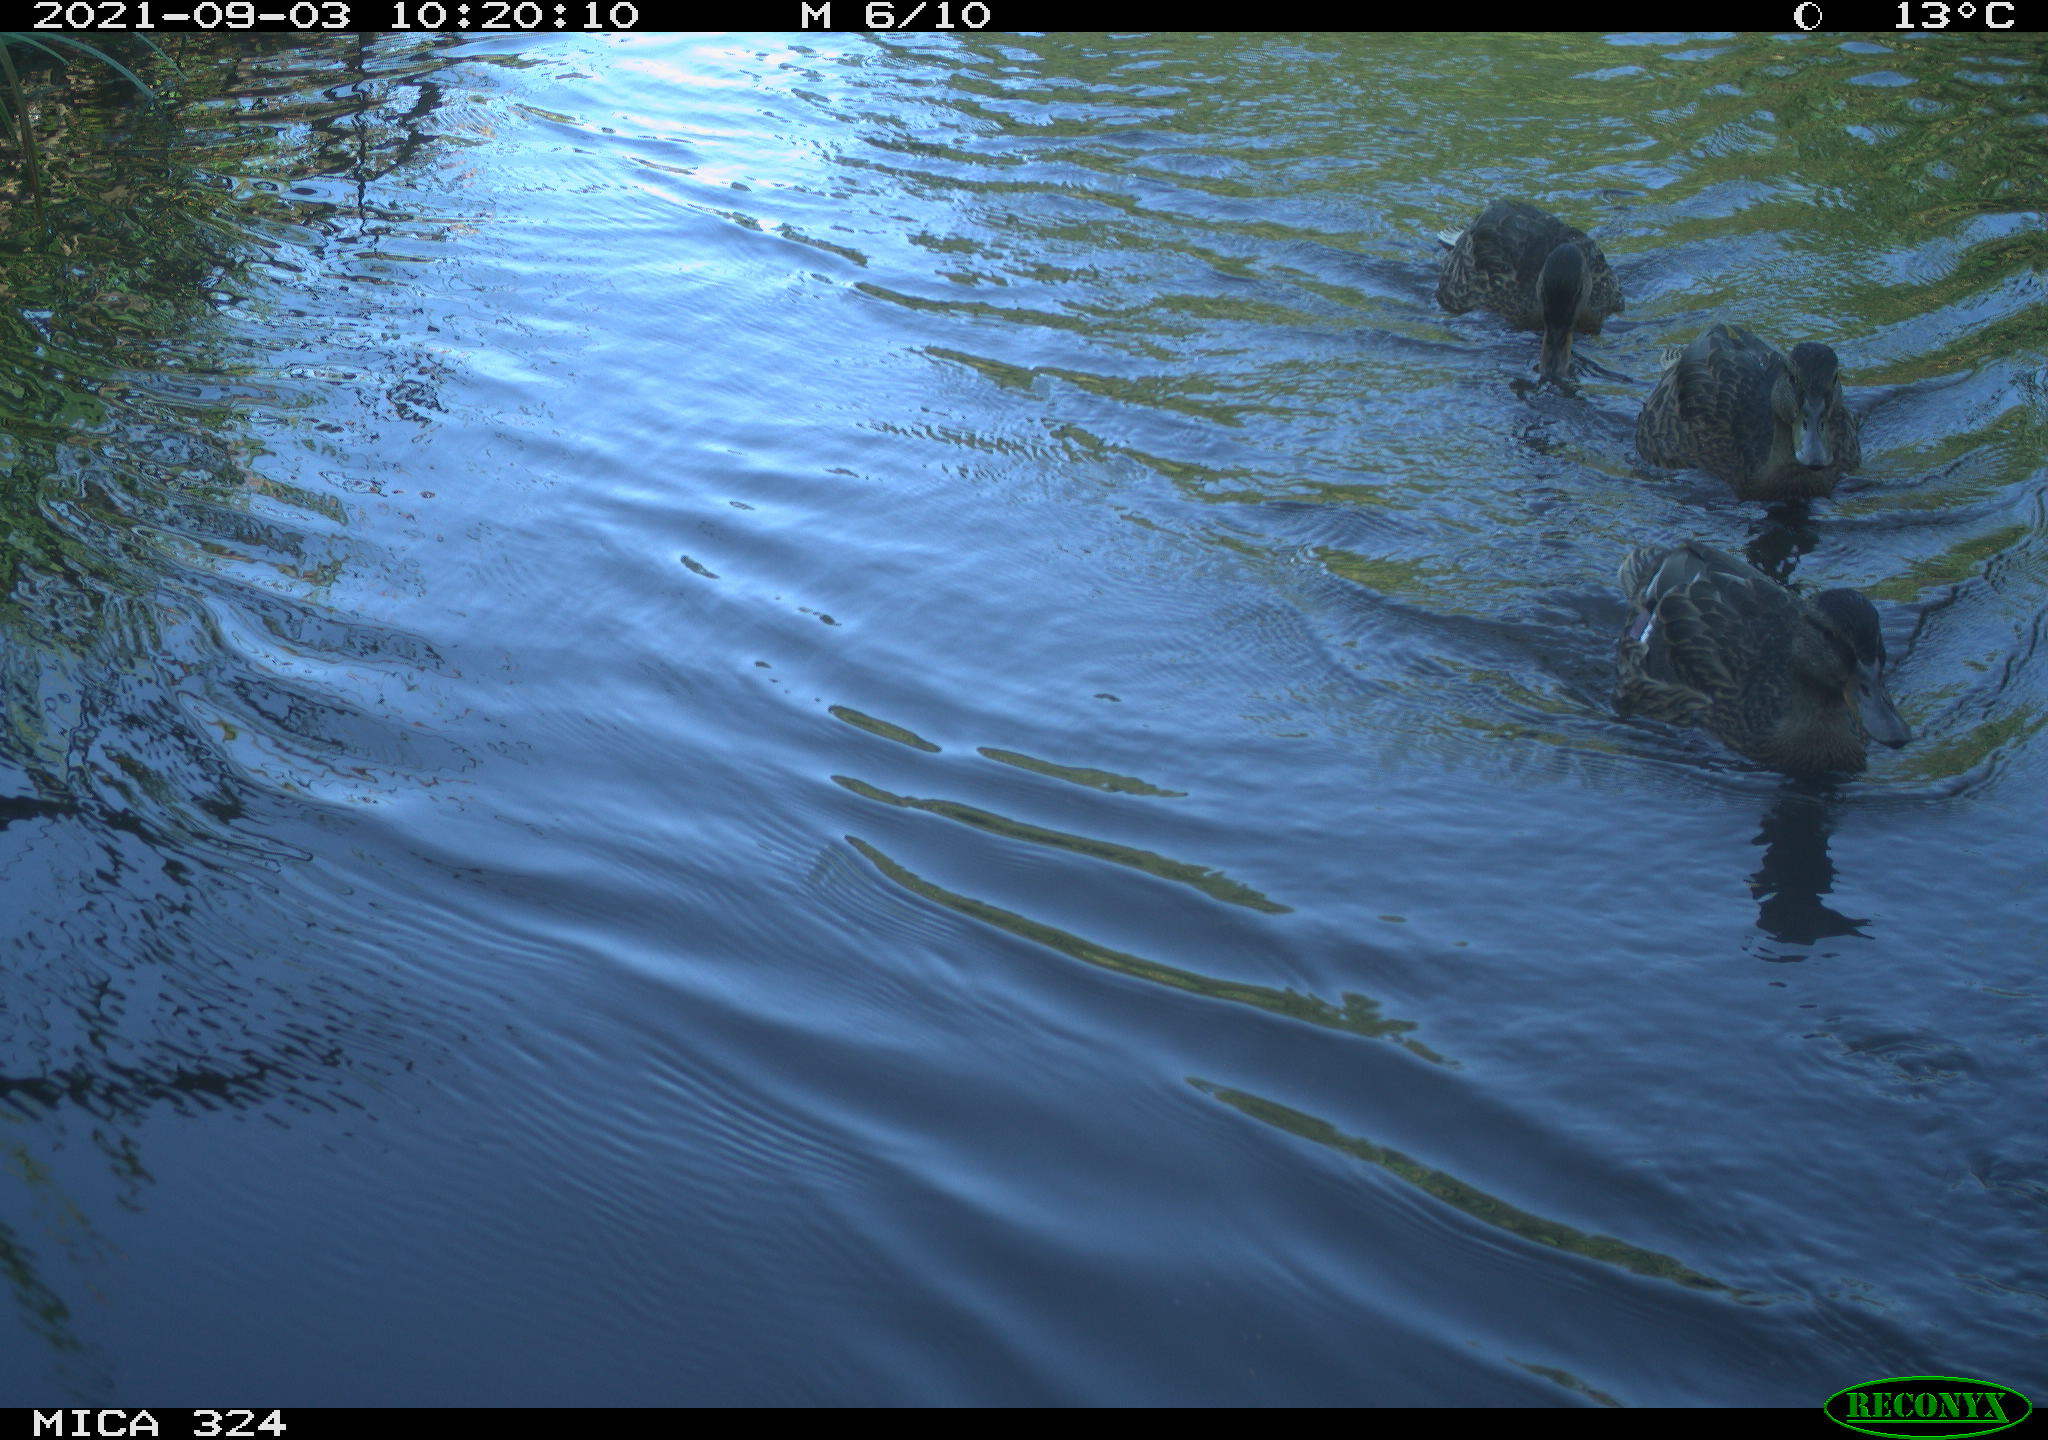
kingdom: Animalia
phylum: Chordata
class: Aves
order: Anseriformes
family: Anatidae
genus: Anas
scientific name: Anas platyrhynchos
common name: Mallard
